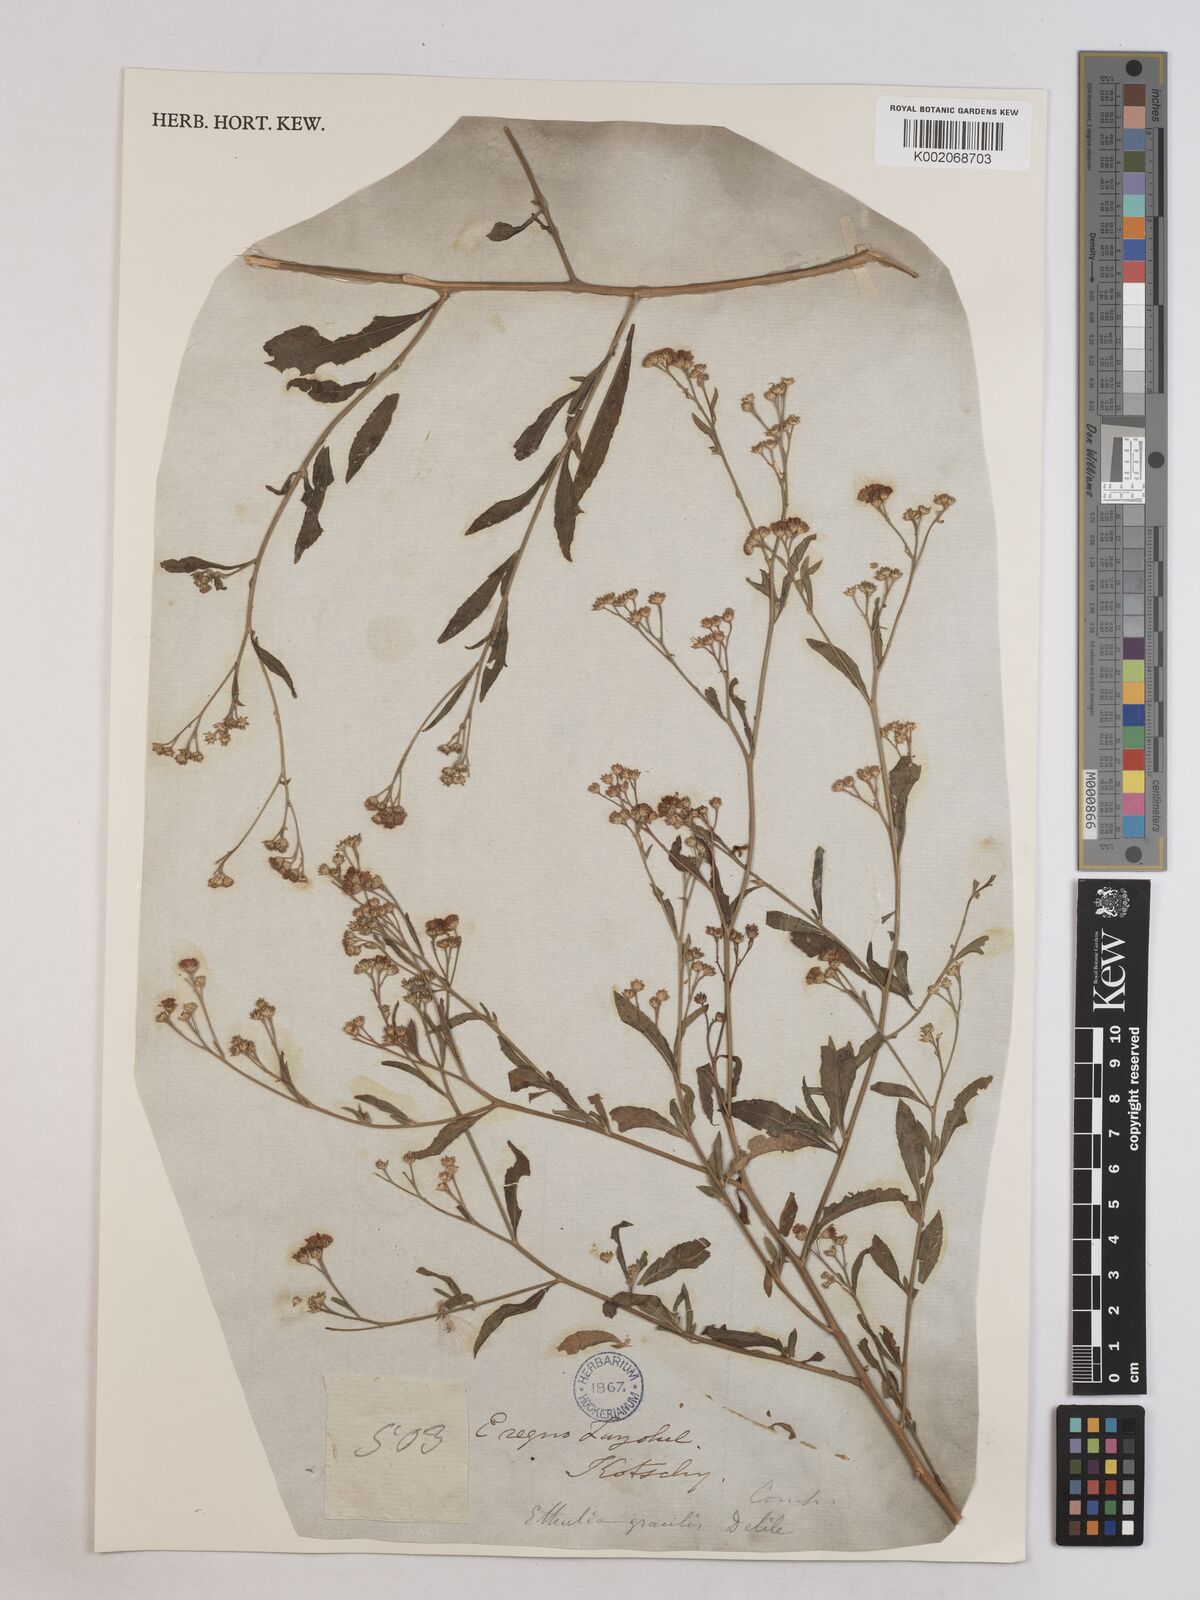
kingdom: Plantae
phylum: Tracheophyta
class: Magnoliopsida
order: Asterales
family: Asteraceae
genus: Ethulia
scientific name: Ethulia gracilis
